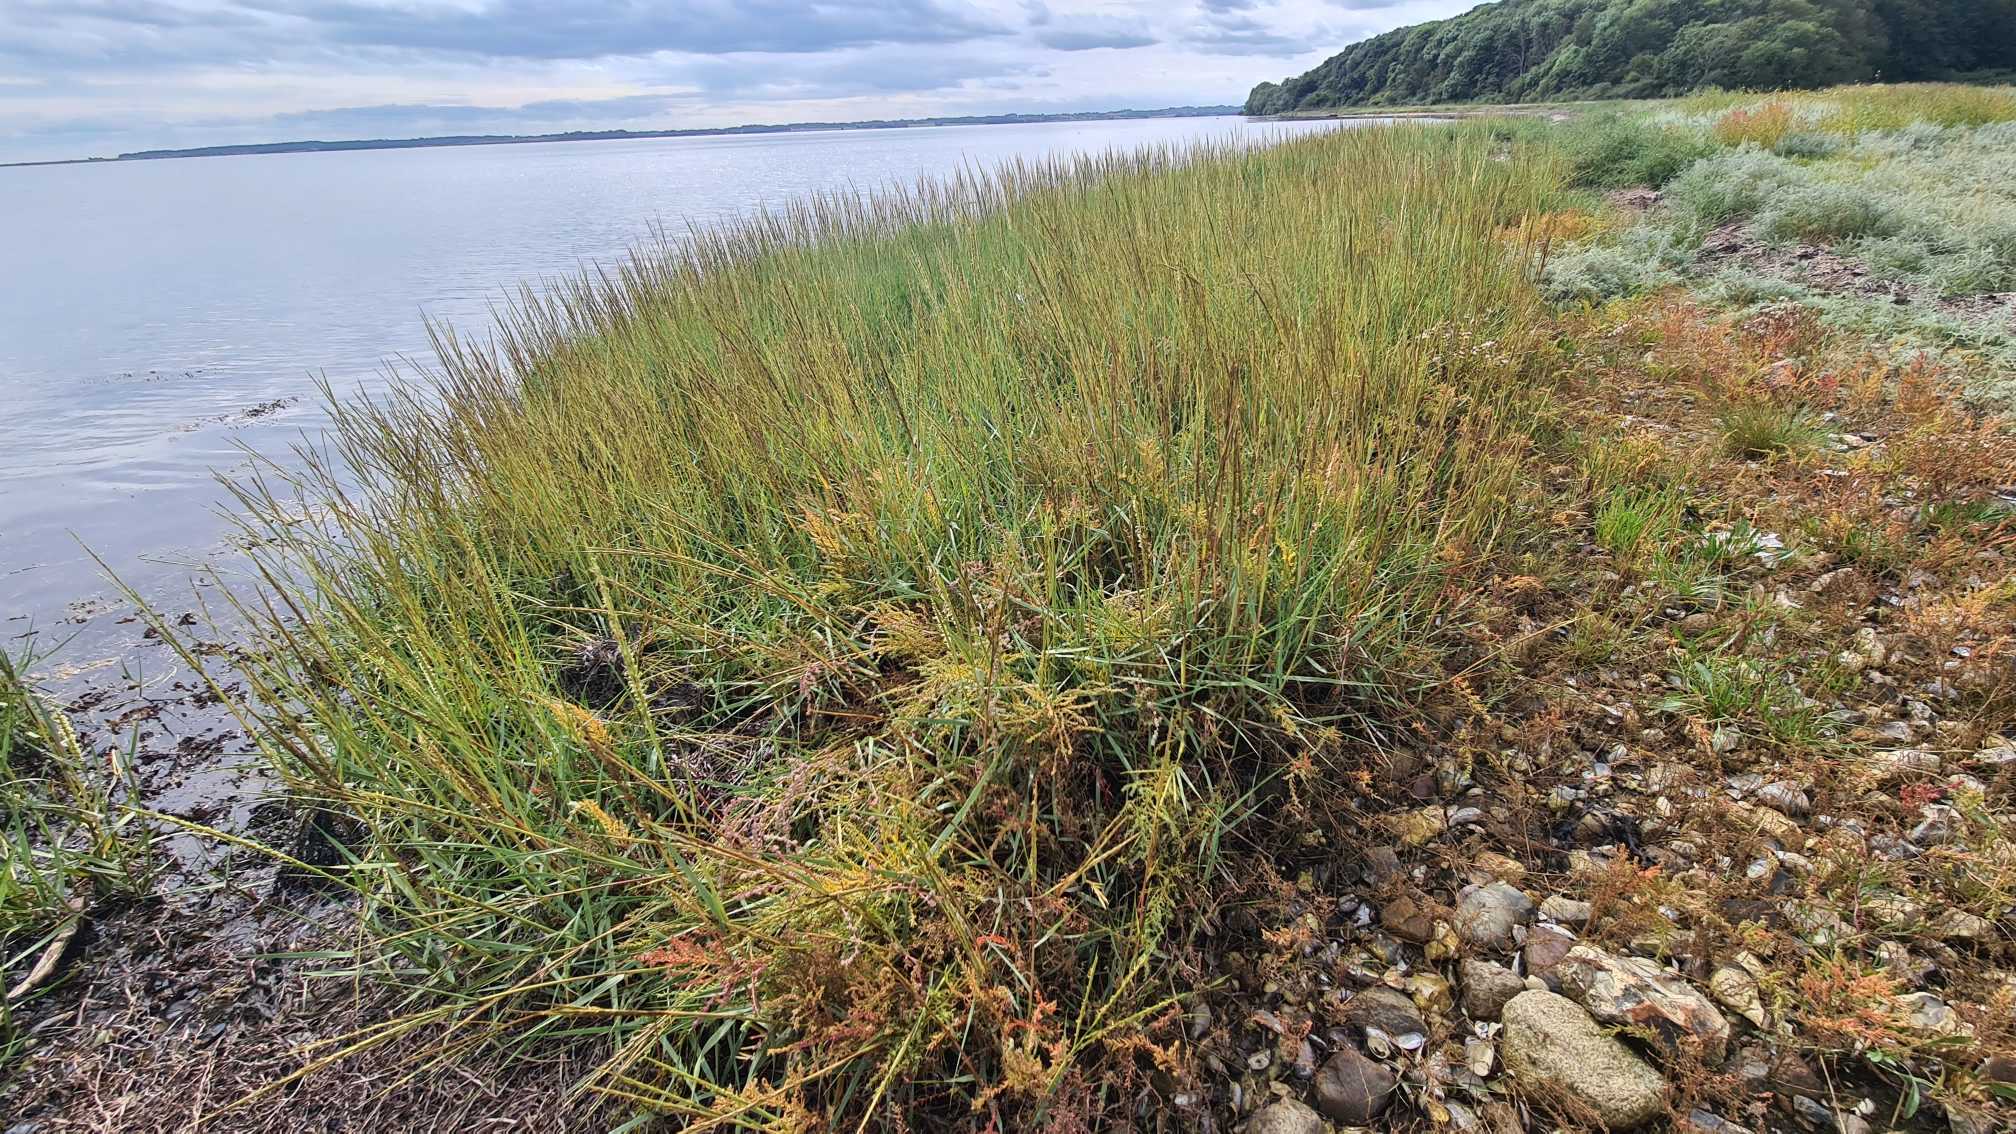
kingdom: Plantae
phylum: Tracheophyta
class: Liliopsida
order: Poales
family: Poaceae
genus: Sporobolus
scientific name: Sporobolus anglicus
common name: Engelsk vadegræs
